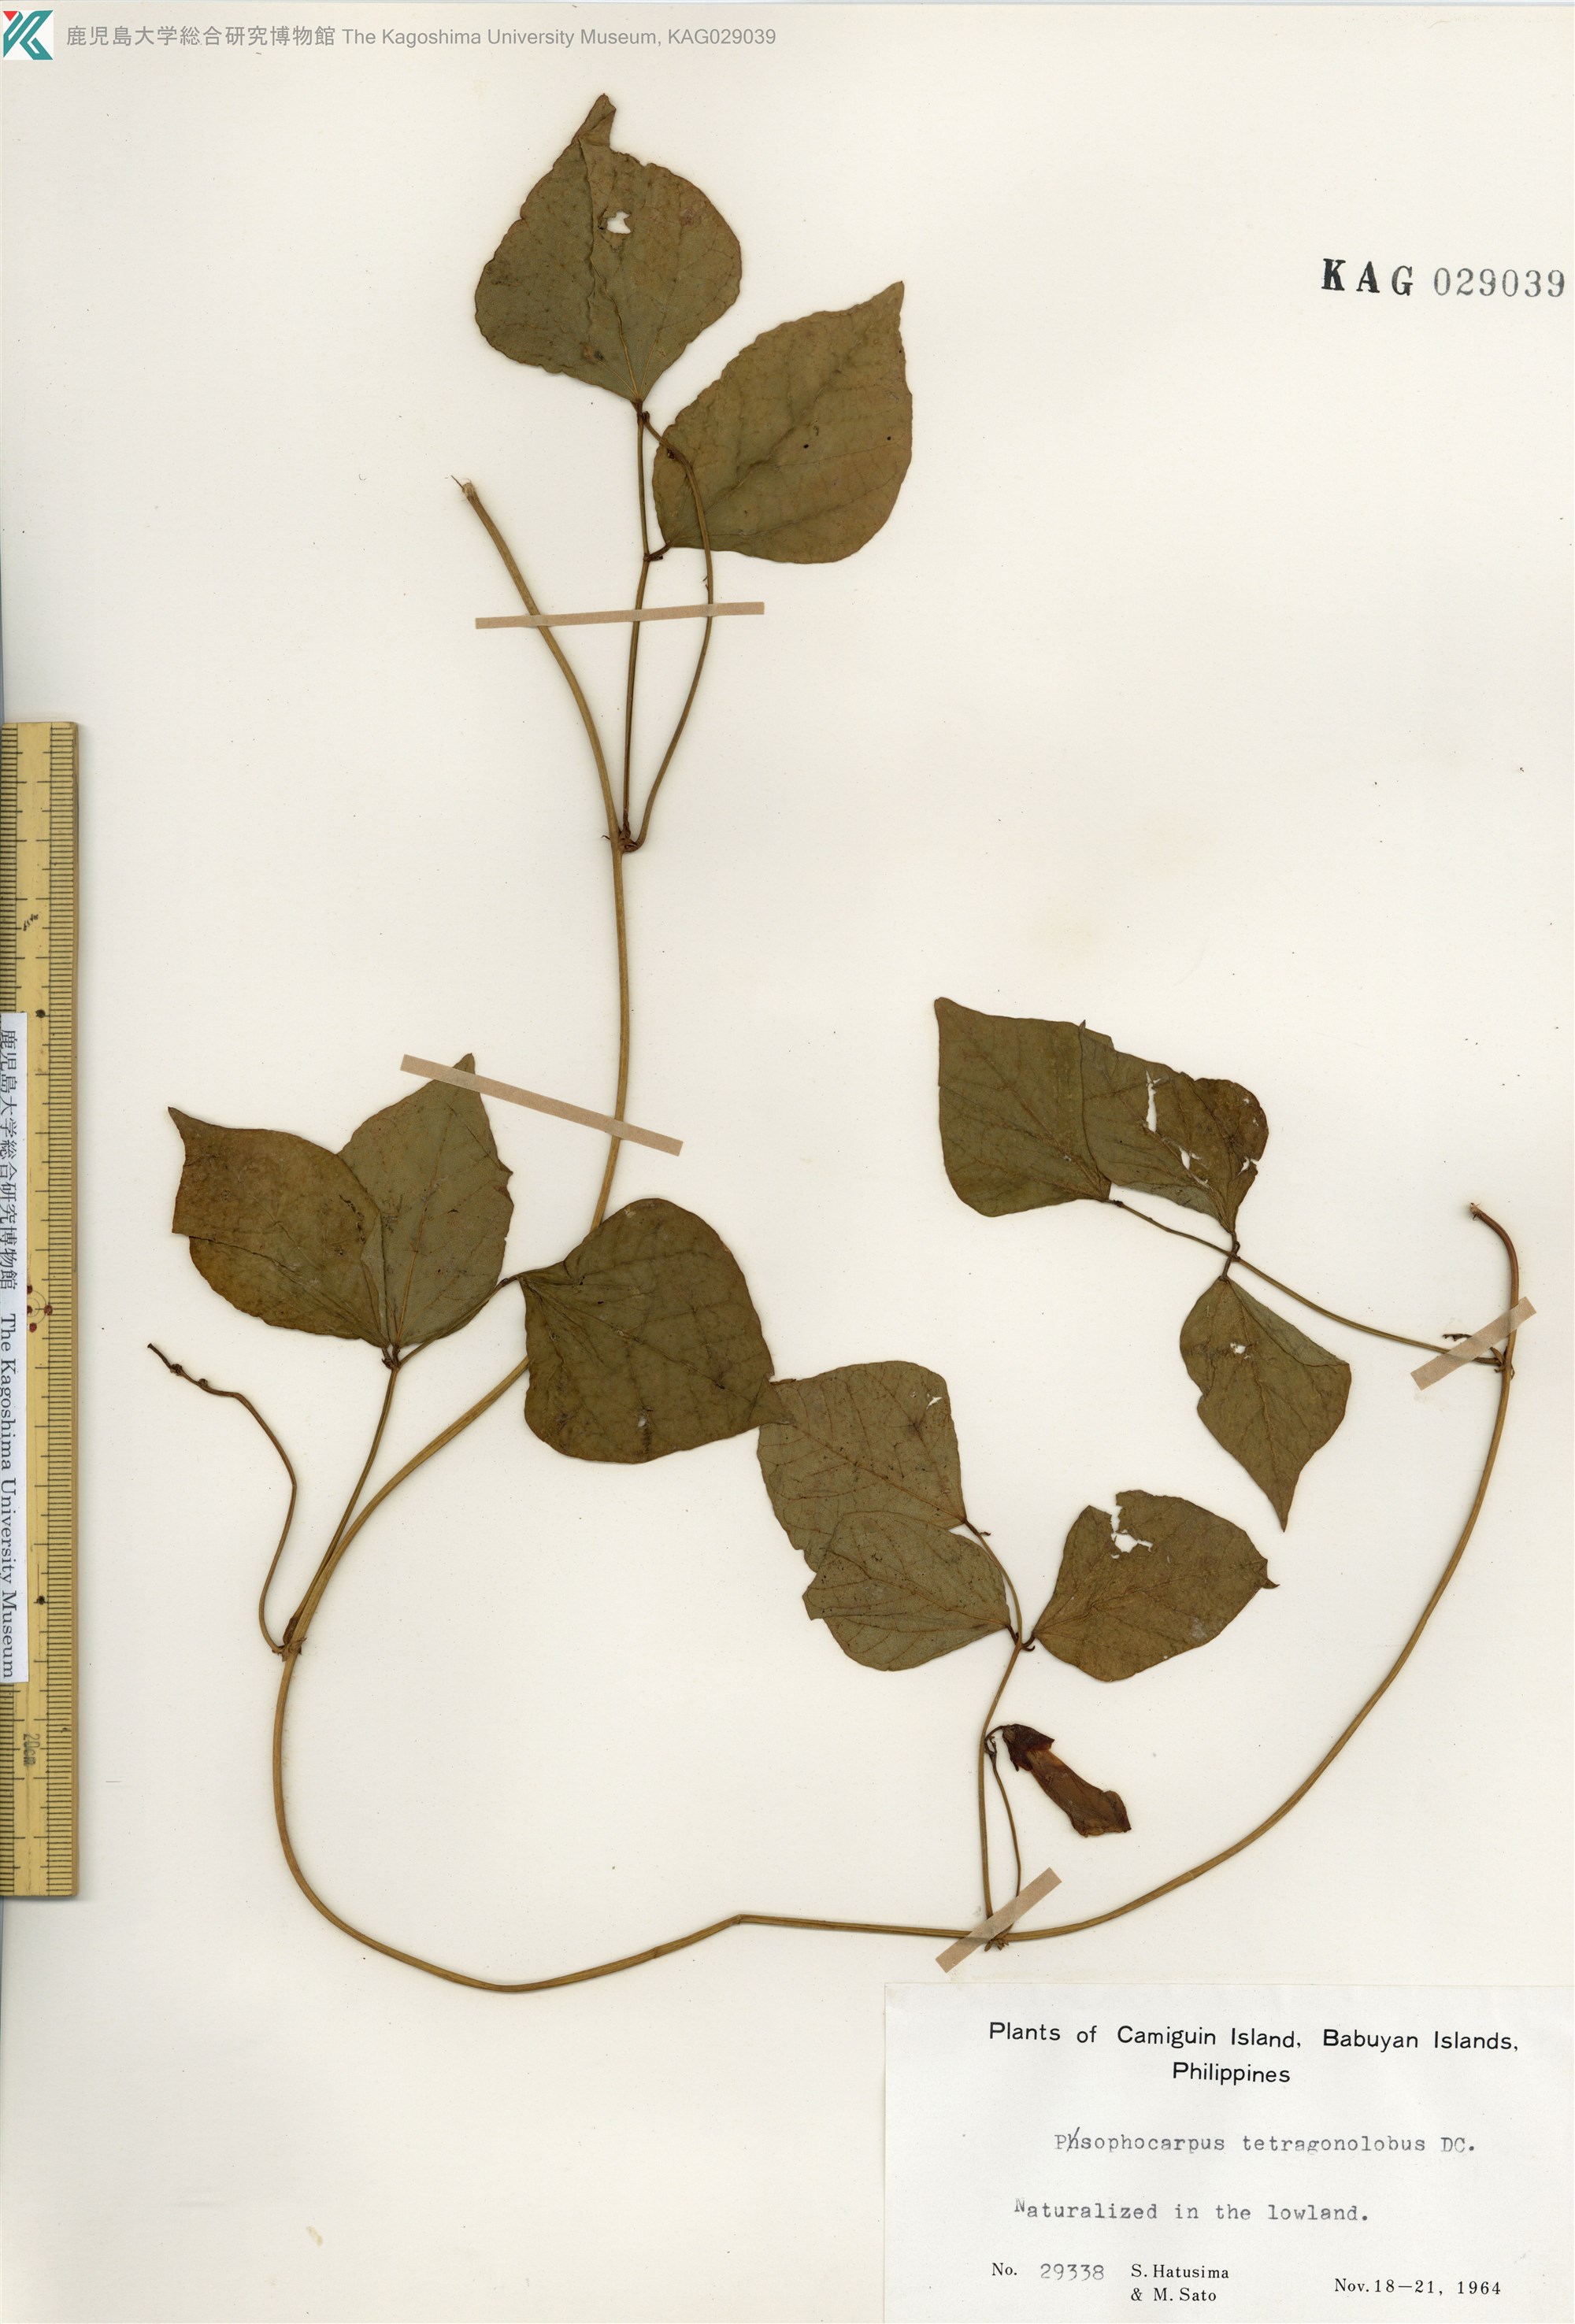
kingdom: Plantae
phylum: Tracheophyta
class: Magnoliopsida
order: Fabales
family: Fabaceae
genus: Psophocarpus
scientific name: Psophocarpus tetragonolobus
